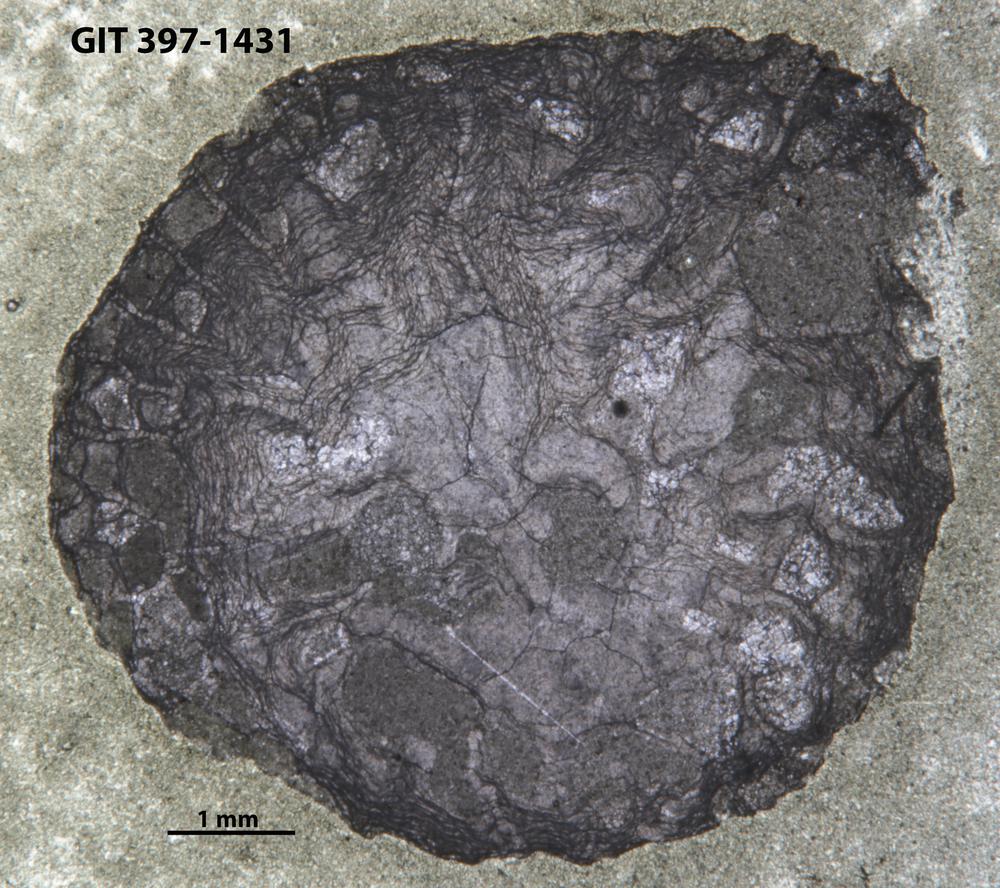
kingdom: Animalia
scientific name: Animalia
